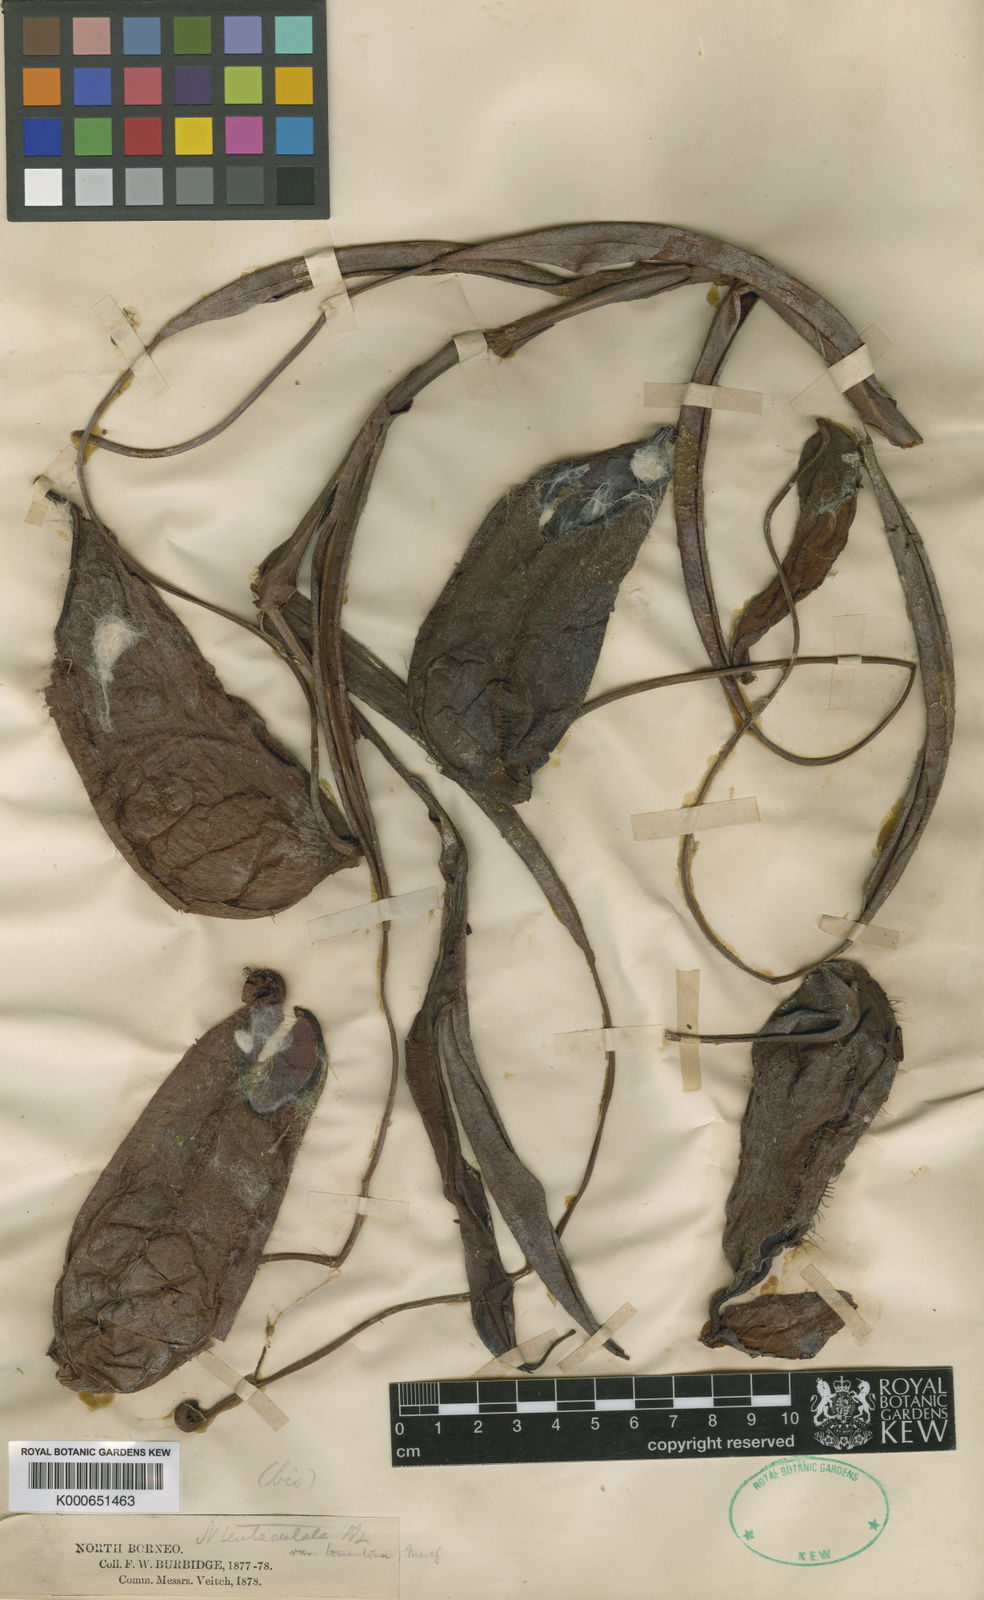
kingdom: Plantae
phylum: Tracheophyta
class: Magnoliopsida
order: Caryophyllales
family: Nepenthaceae
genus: Nepenthes
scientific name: Nepenthes tentaculata
